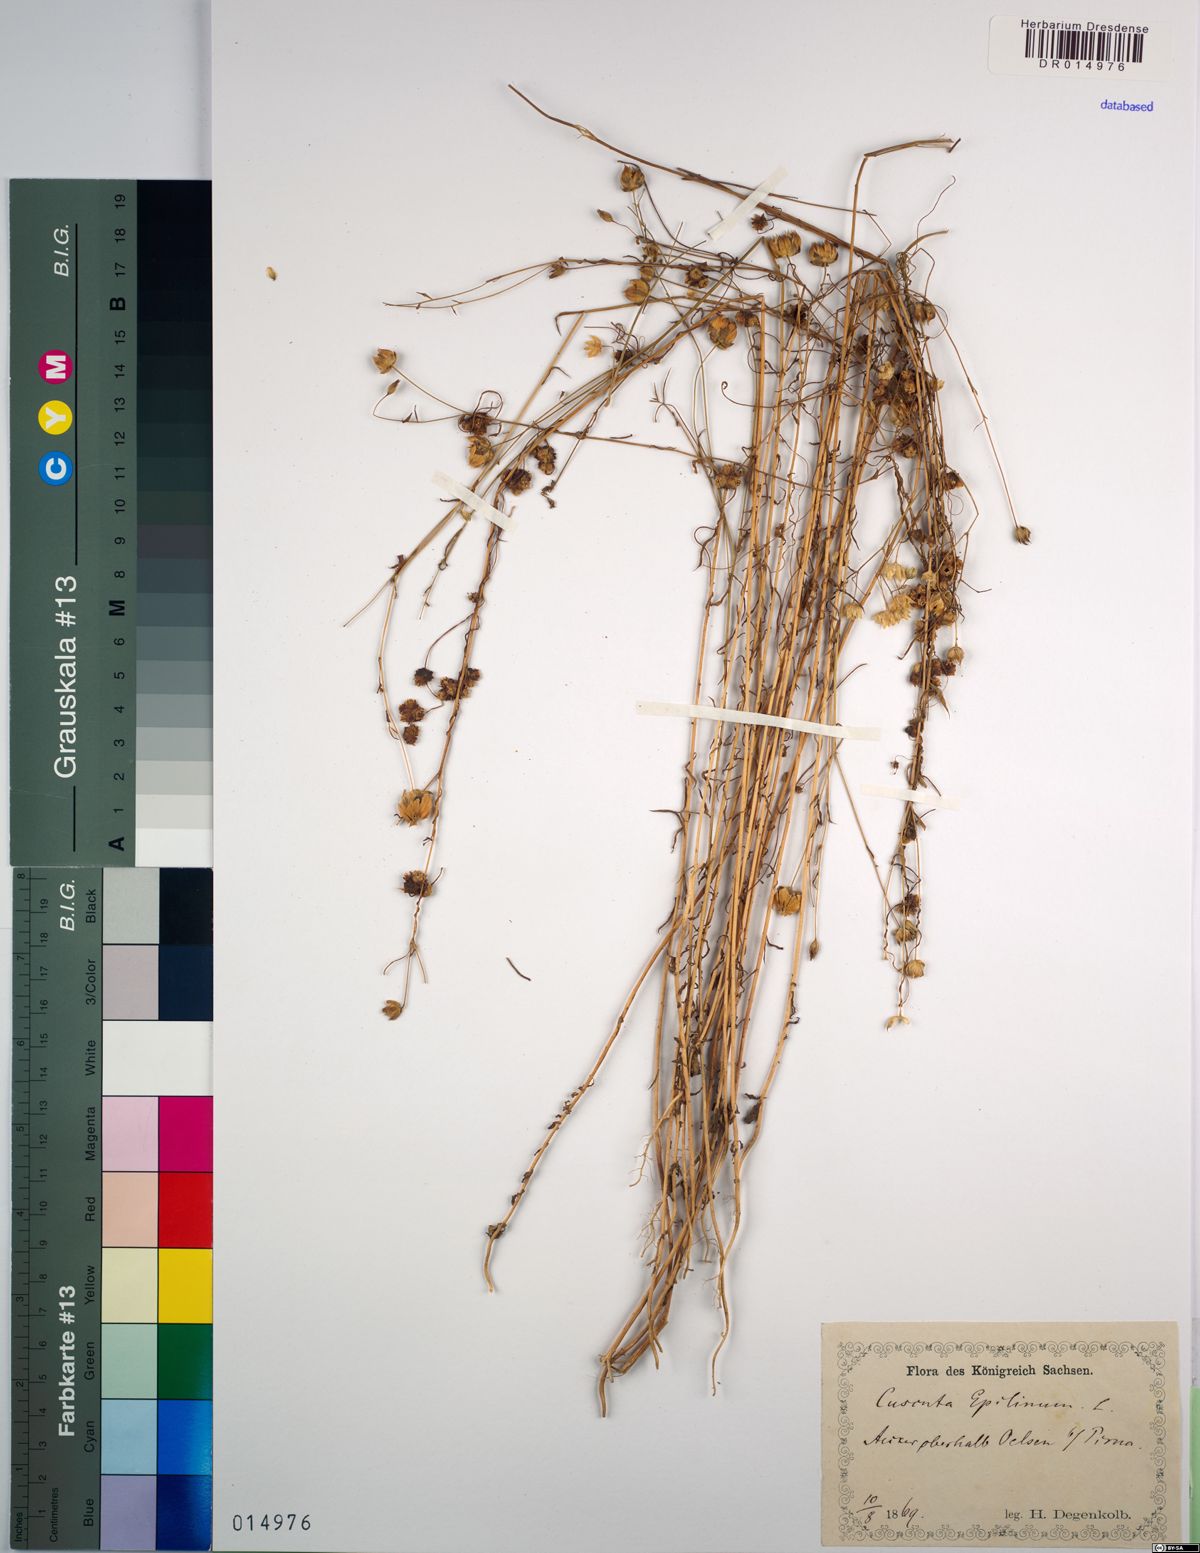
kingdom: Plantae
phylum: Tracheophyta
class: Magnoliopsida
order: Solanales
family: Convolvulaceae
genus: Cuscuta
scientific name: Cuscuta epilinum
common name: Flax dodder
